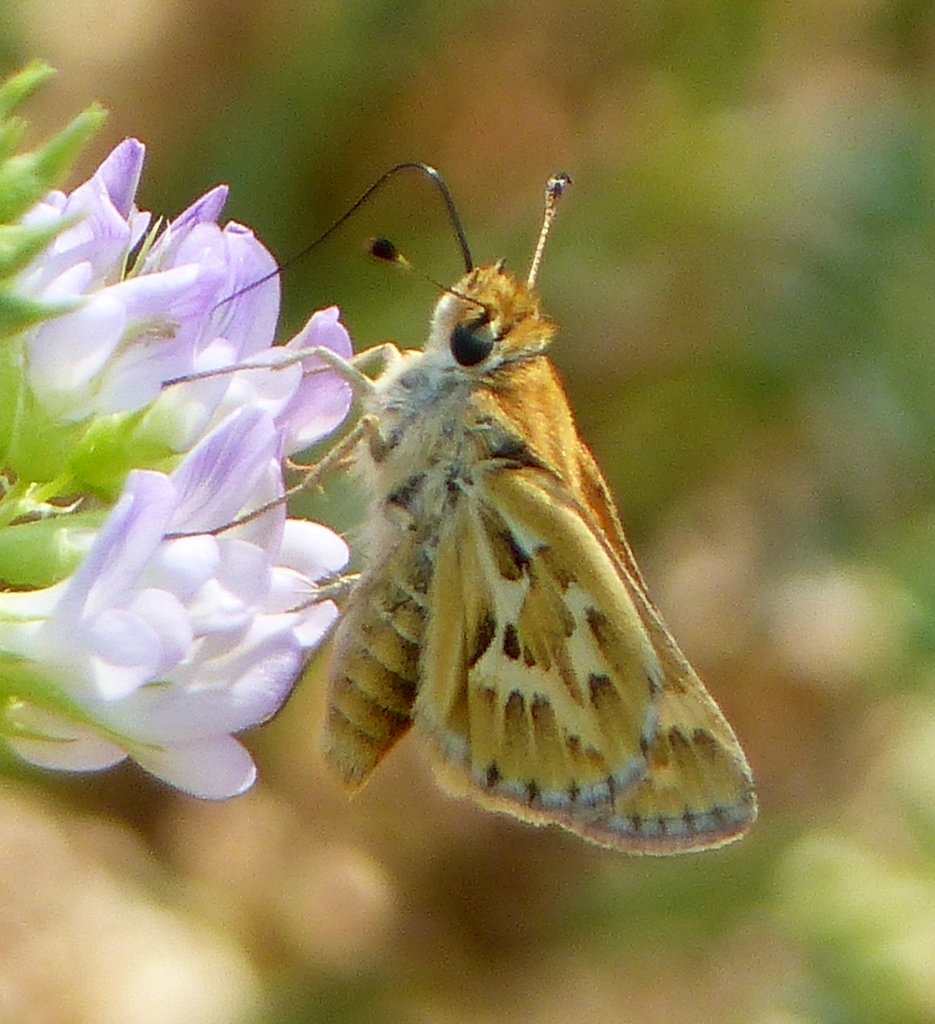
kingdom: Animalia
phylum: Arthropoda
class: Insecta
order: Lepidoptera
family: Hesperiidae
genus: Polites
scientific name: Polites sabuleti
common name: Sandhill Skipper
